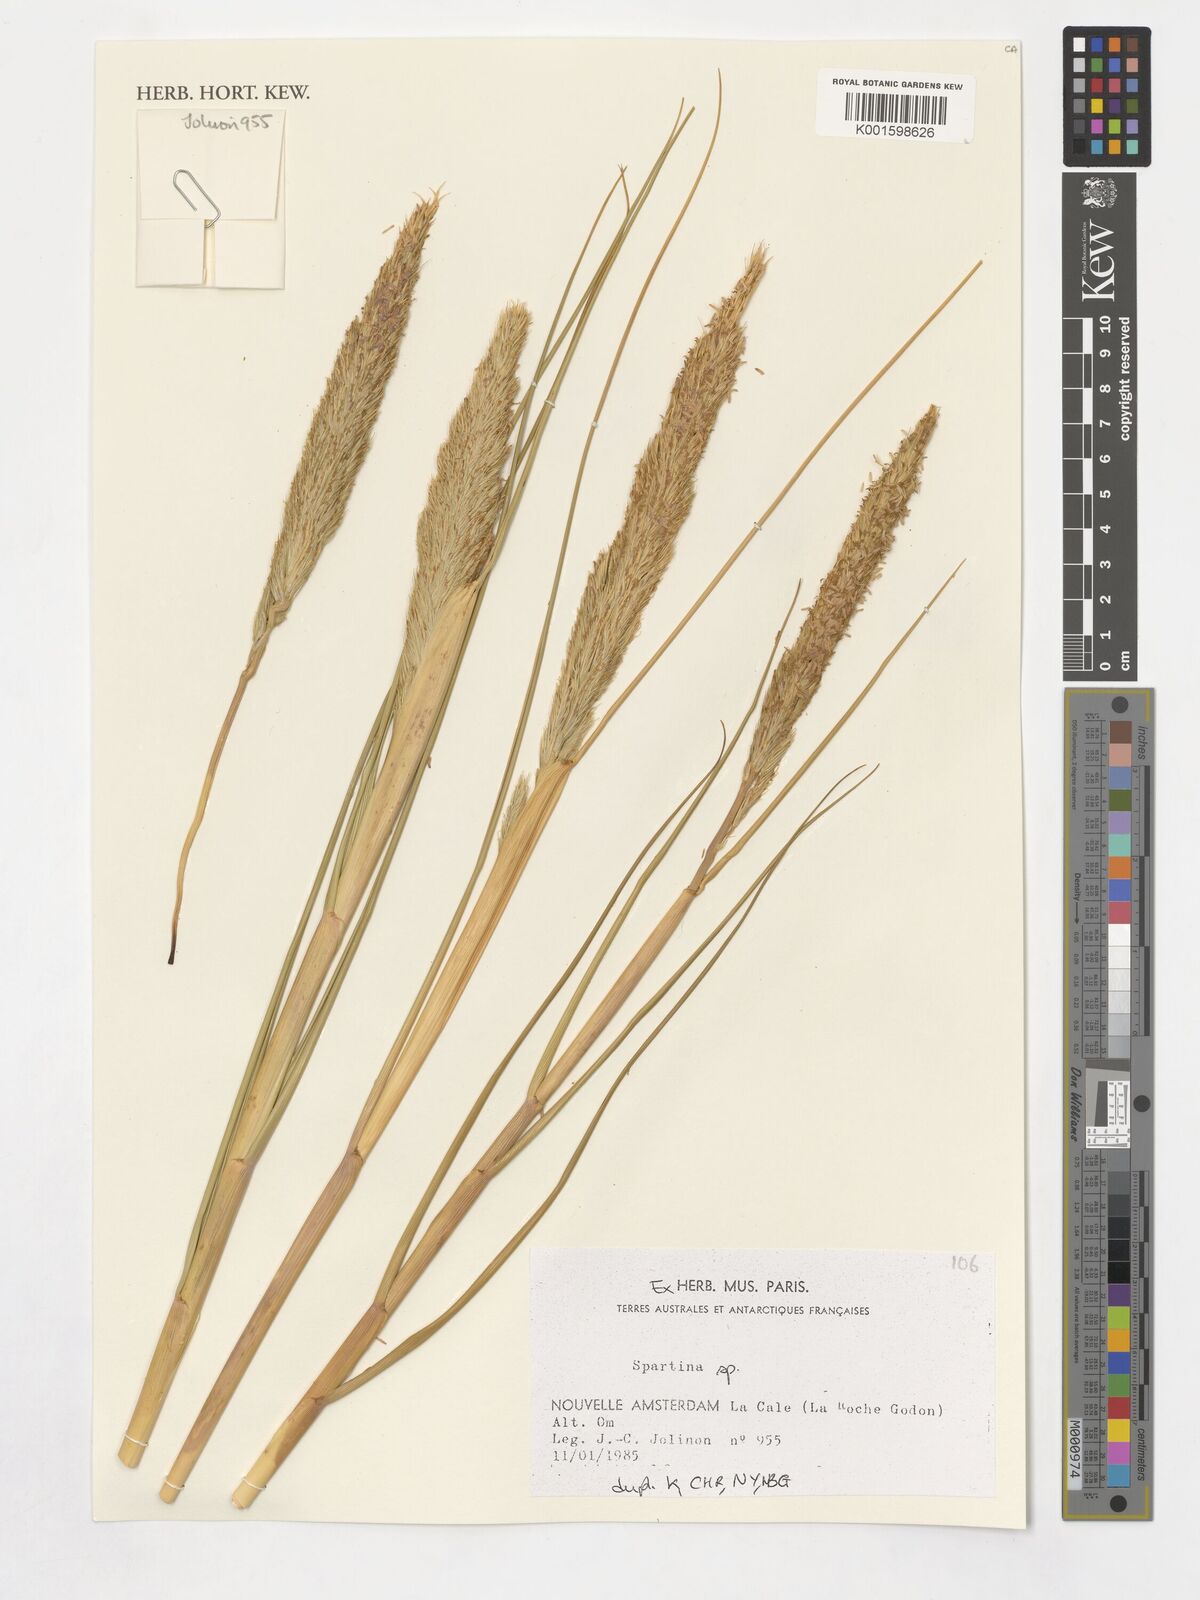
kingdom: Animalia
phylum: Mollusca
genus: Spartina
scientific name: Spartina
